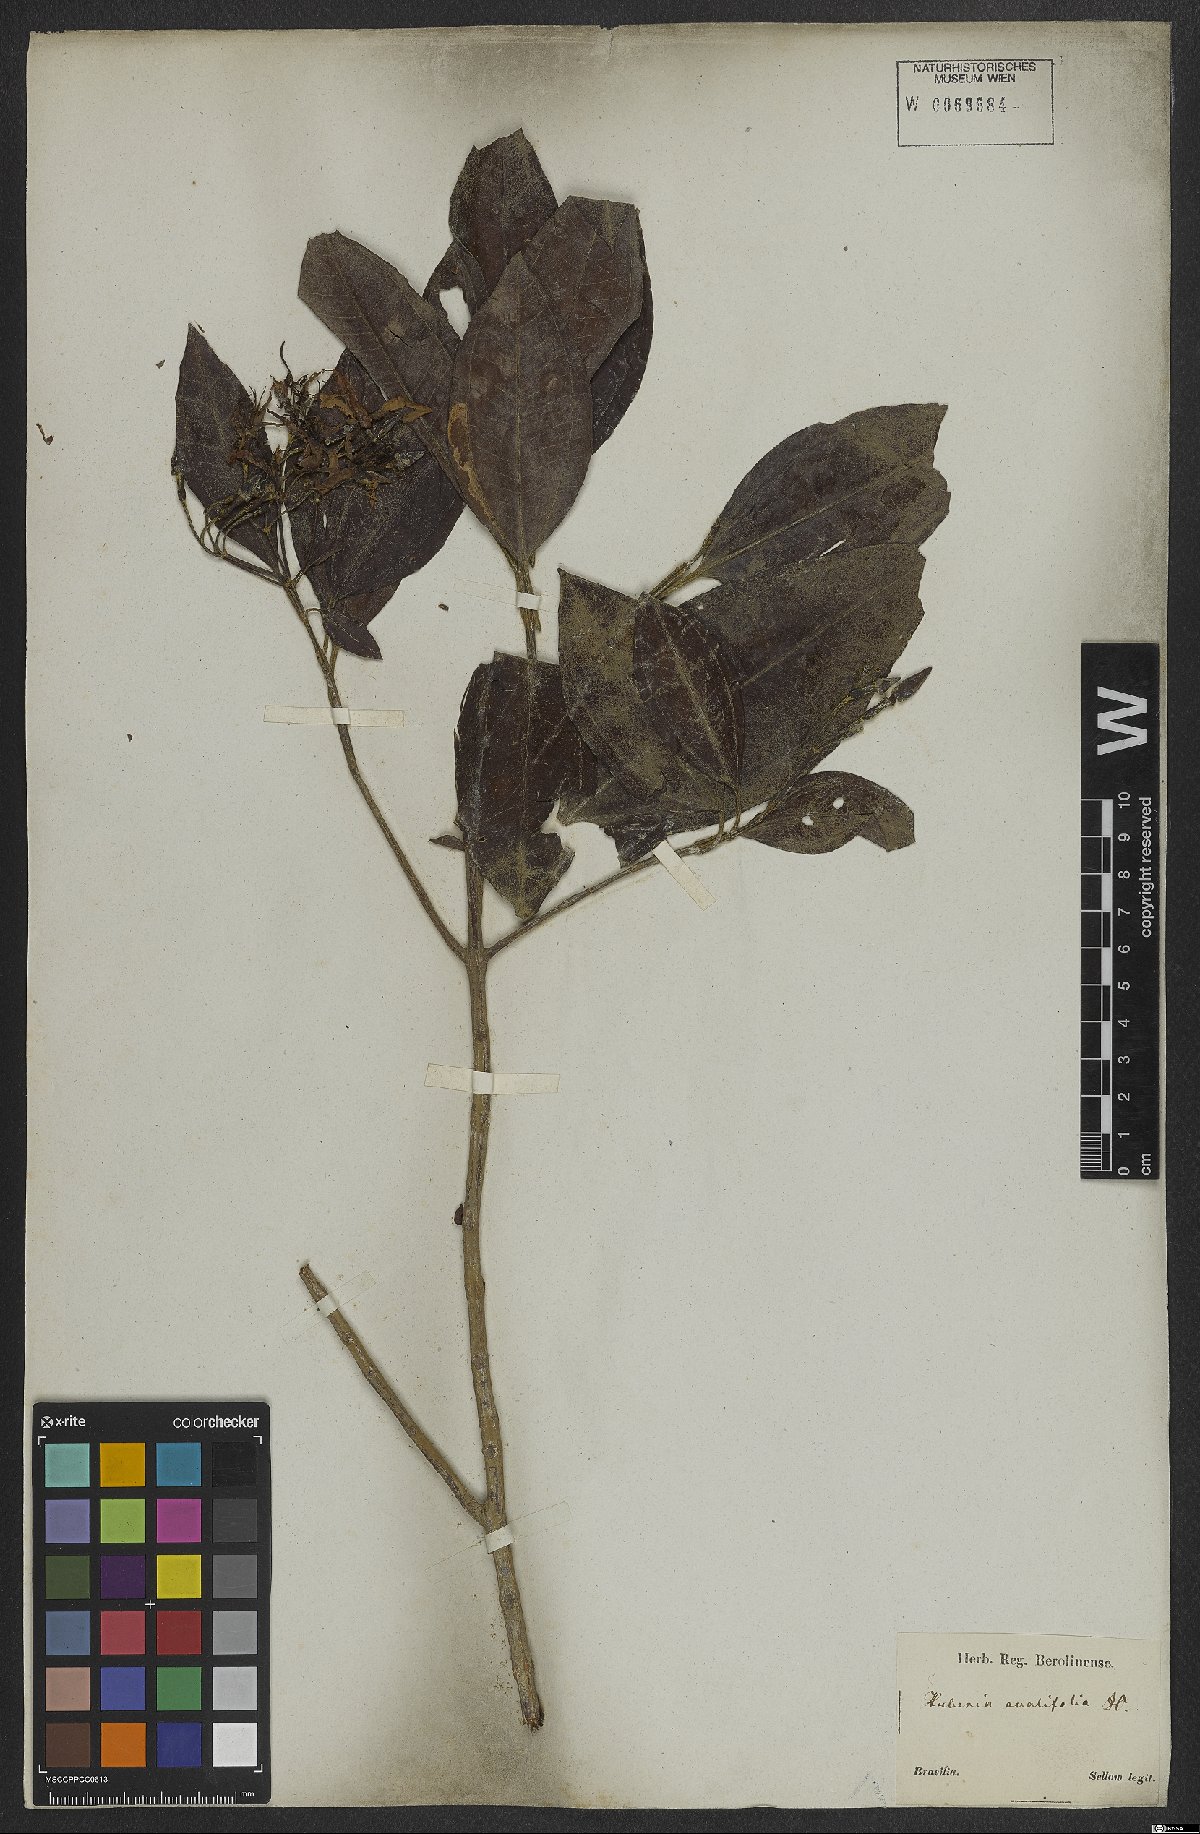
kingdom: Plantae
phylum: Tracheophyta
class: Magnoliopsida
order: Myrtales
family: Melastomataceae
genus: Huberia
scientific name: Huberia ovalifolia
